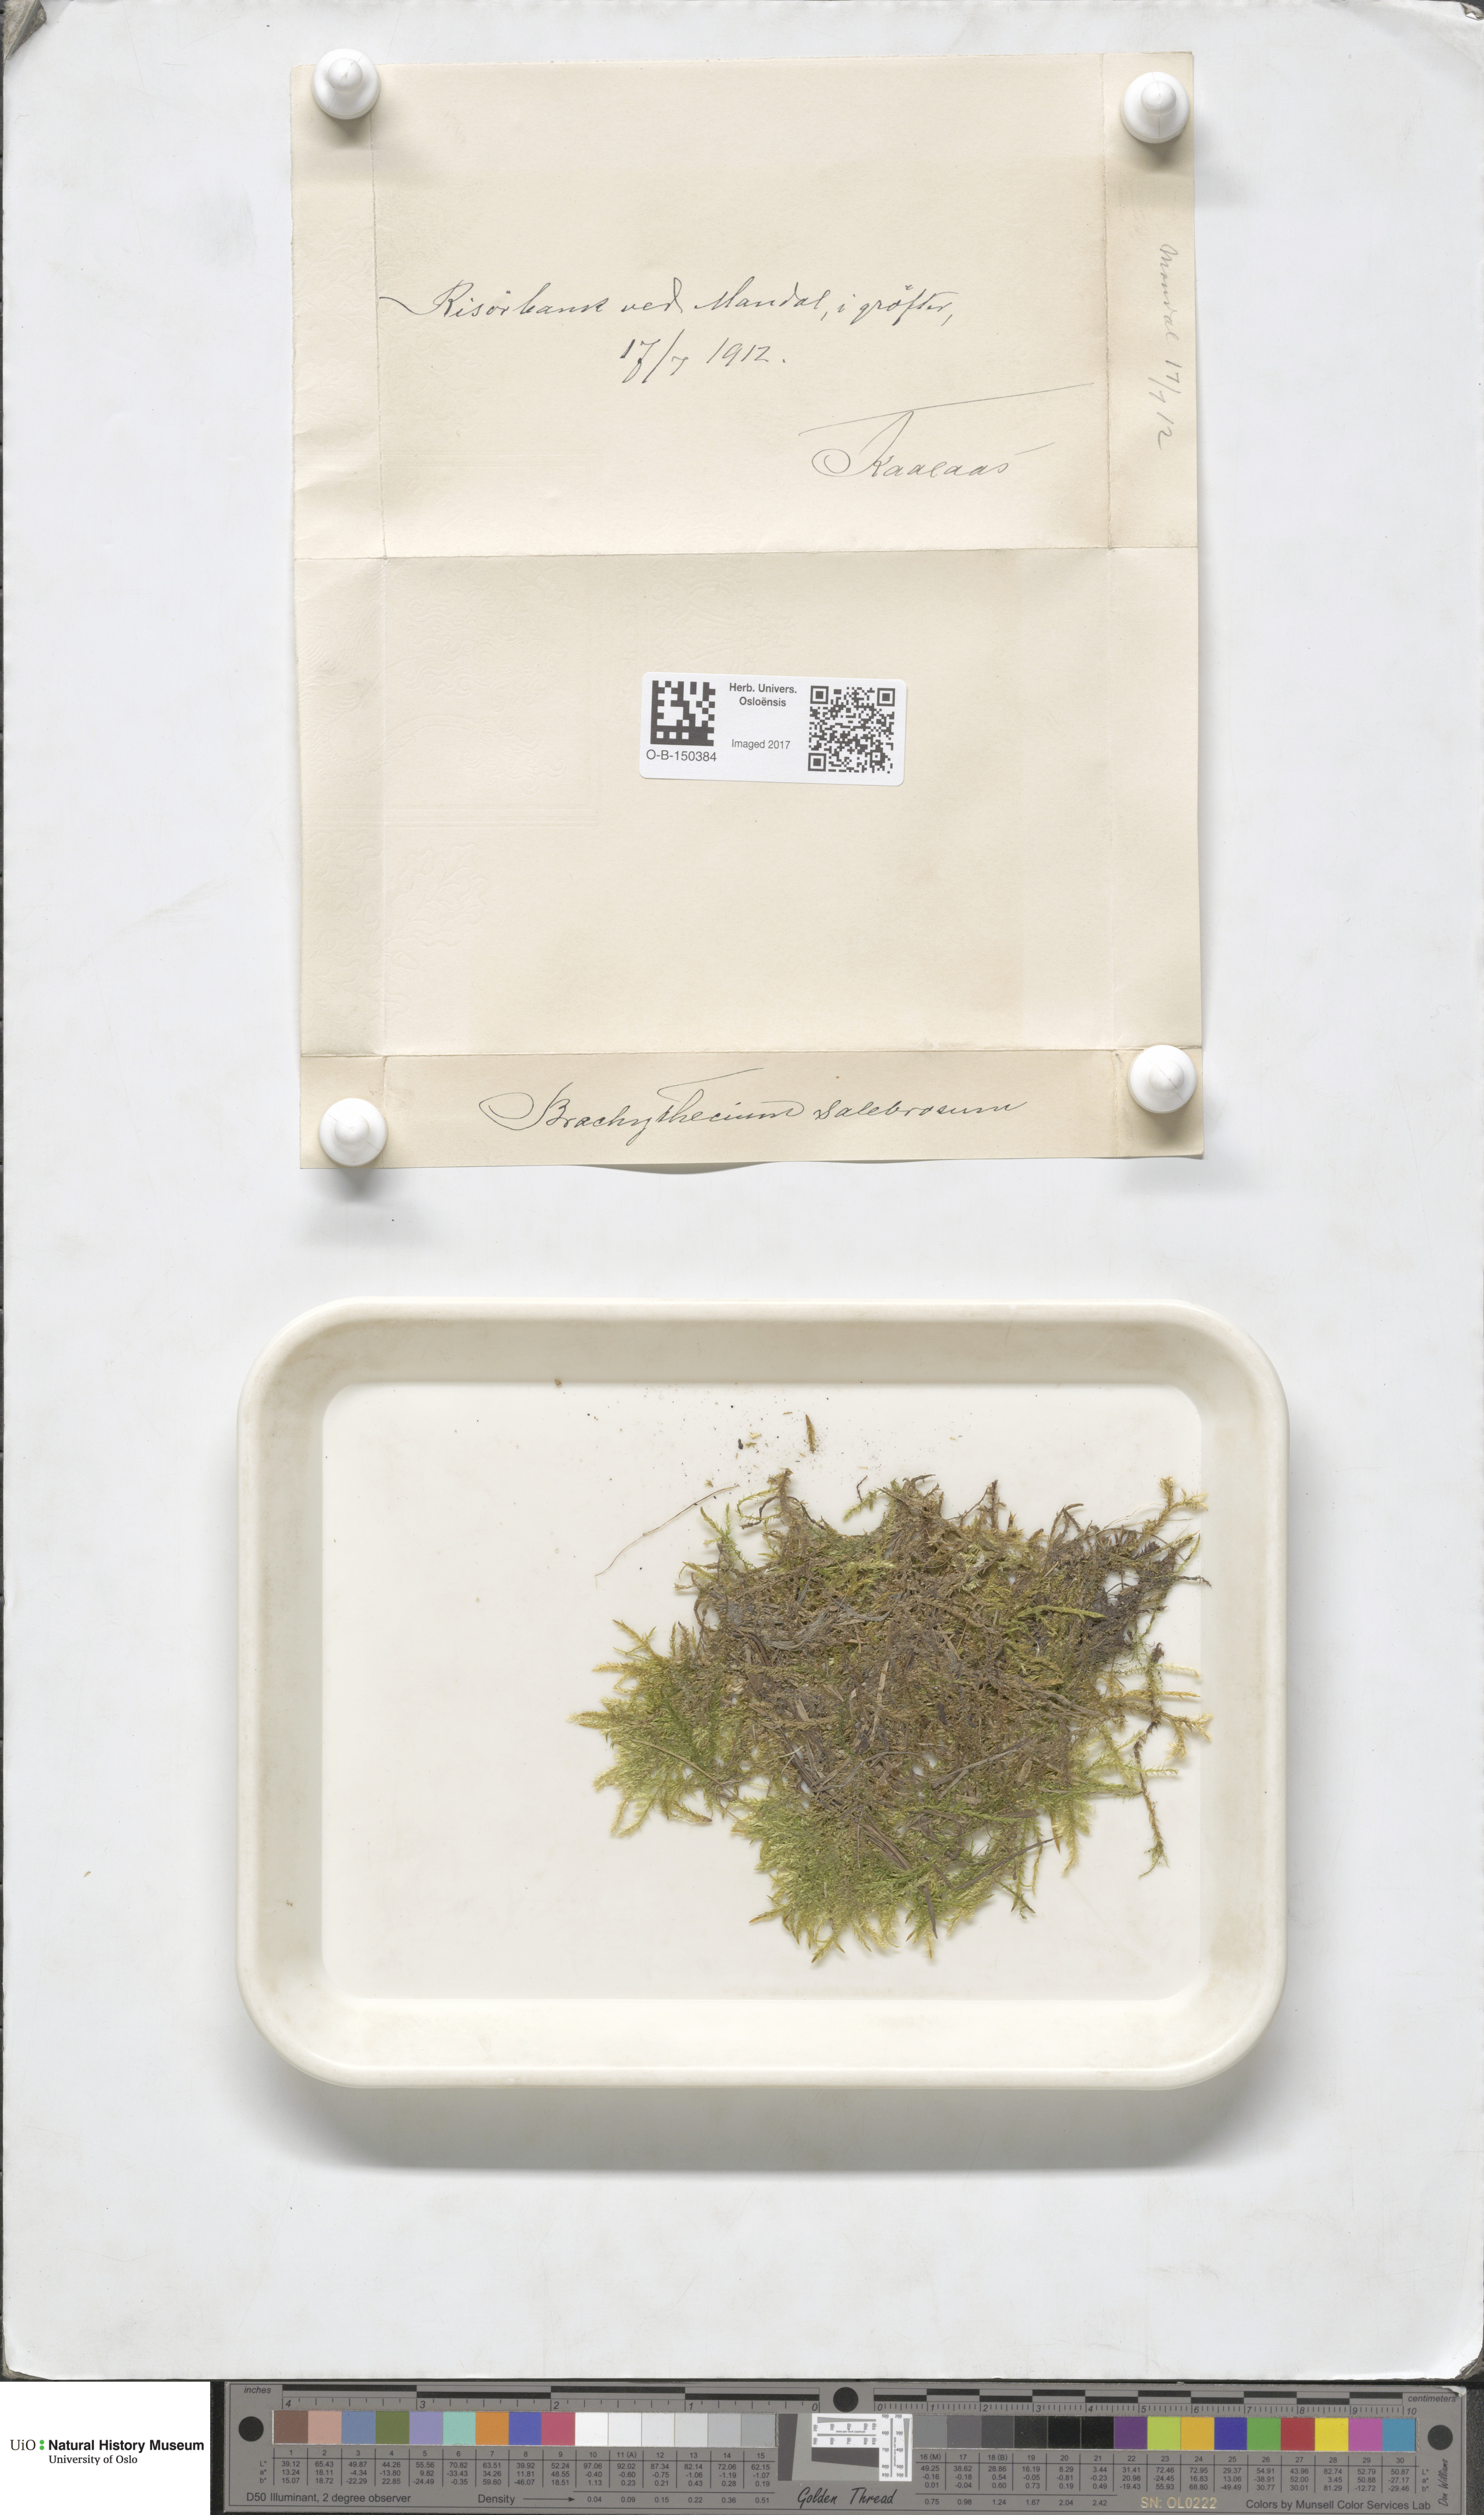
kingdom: Plantae
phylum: Bryophyta
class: Bryopsida
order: Hypnales
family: Brachytheciaceae
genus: Brachythecium
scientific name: Brachythecium salebrosum
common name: Smooth-stalk feather-moss
